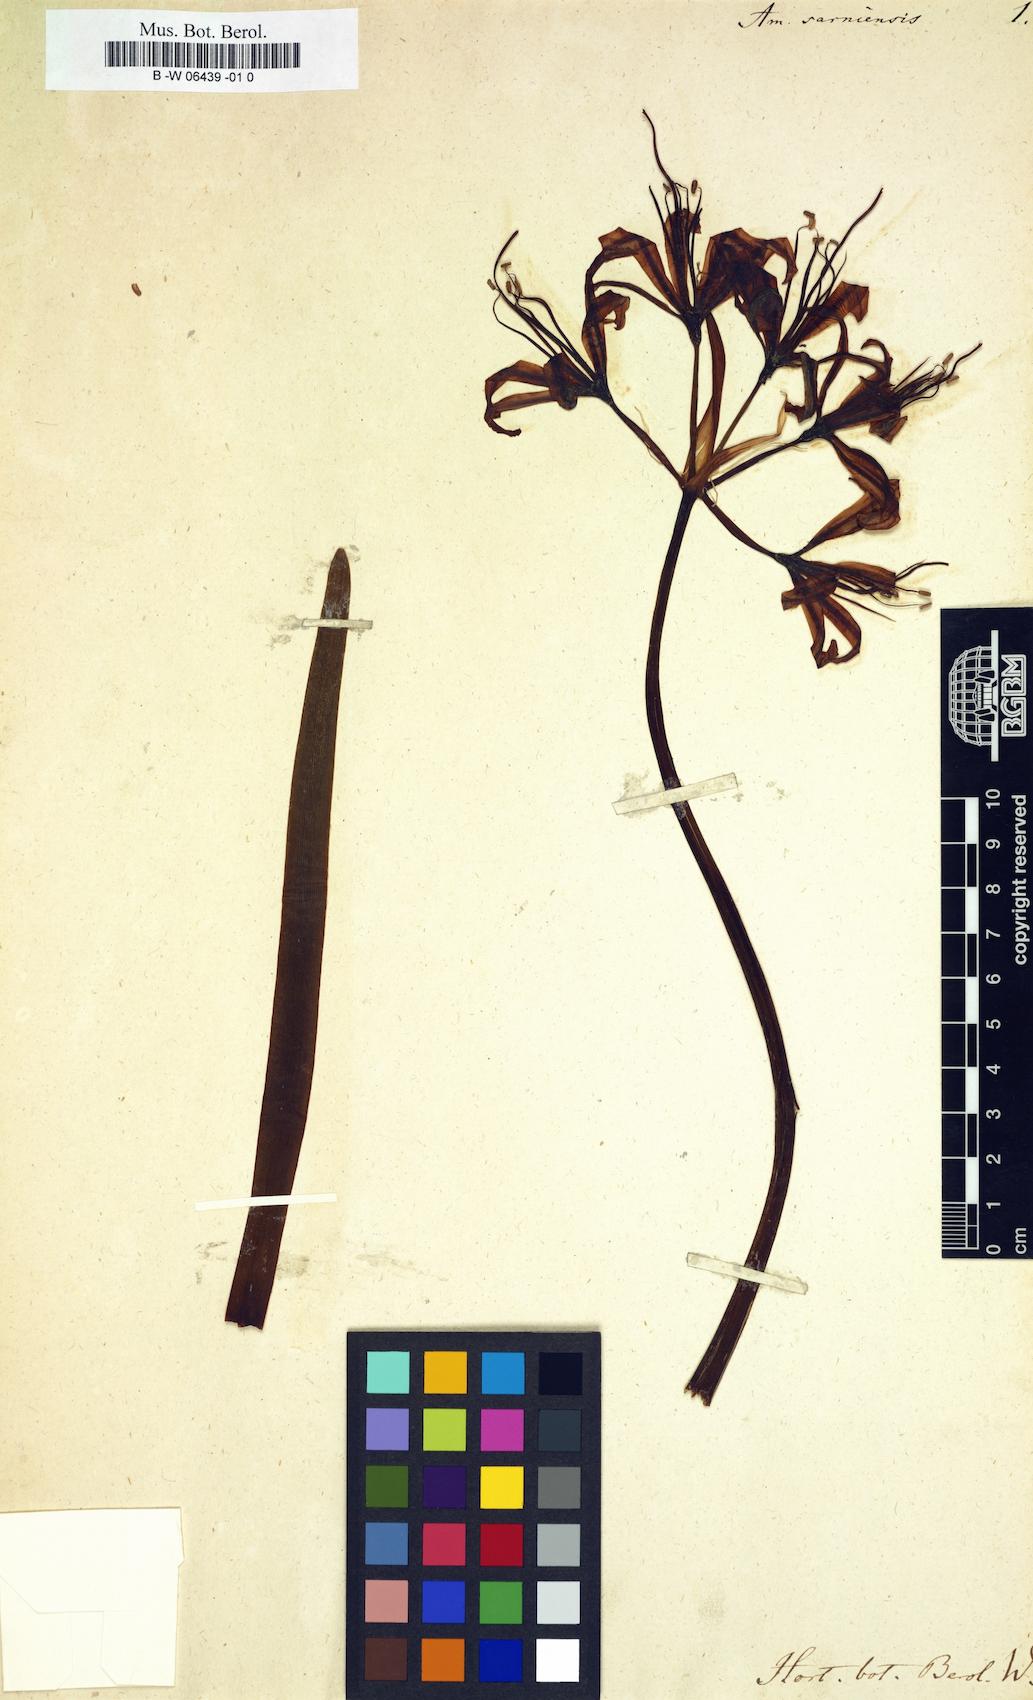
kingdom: Plantae
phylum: Tracheophyta
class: Liliopsida
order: Asparagales
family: Amaryllidaceae
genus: Nerine
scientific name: Nerine sarniensis
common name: Guernsey-lily
